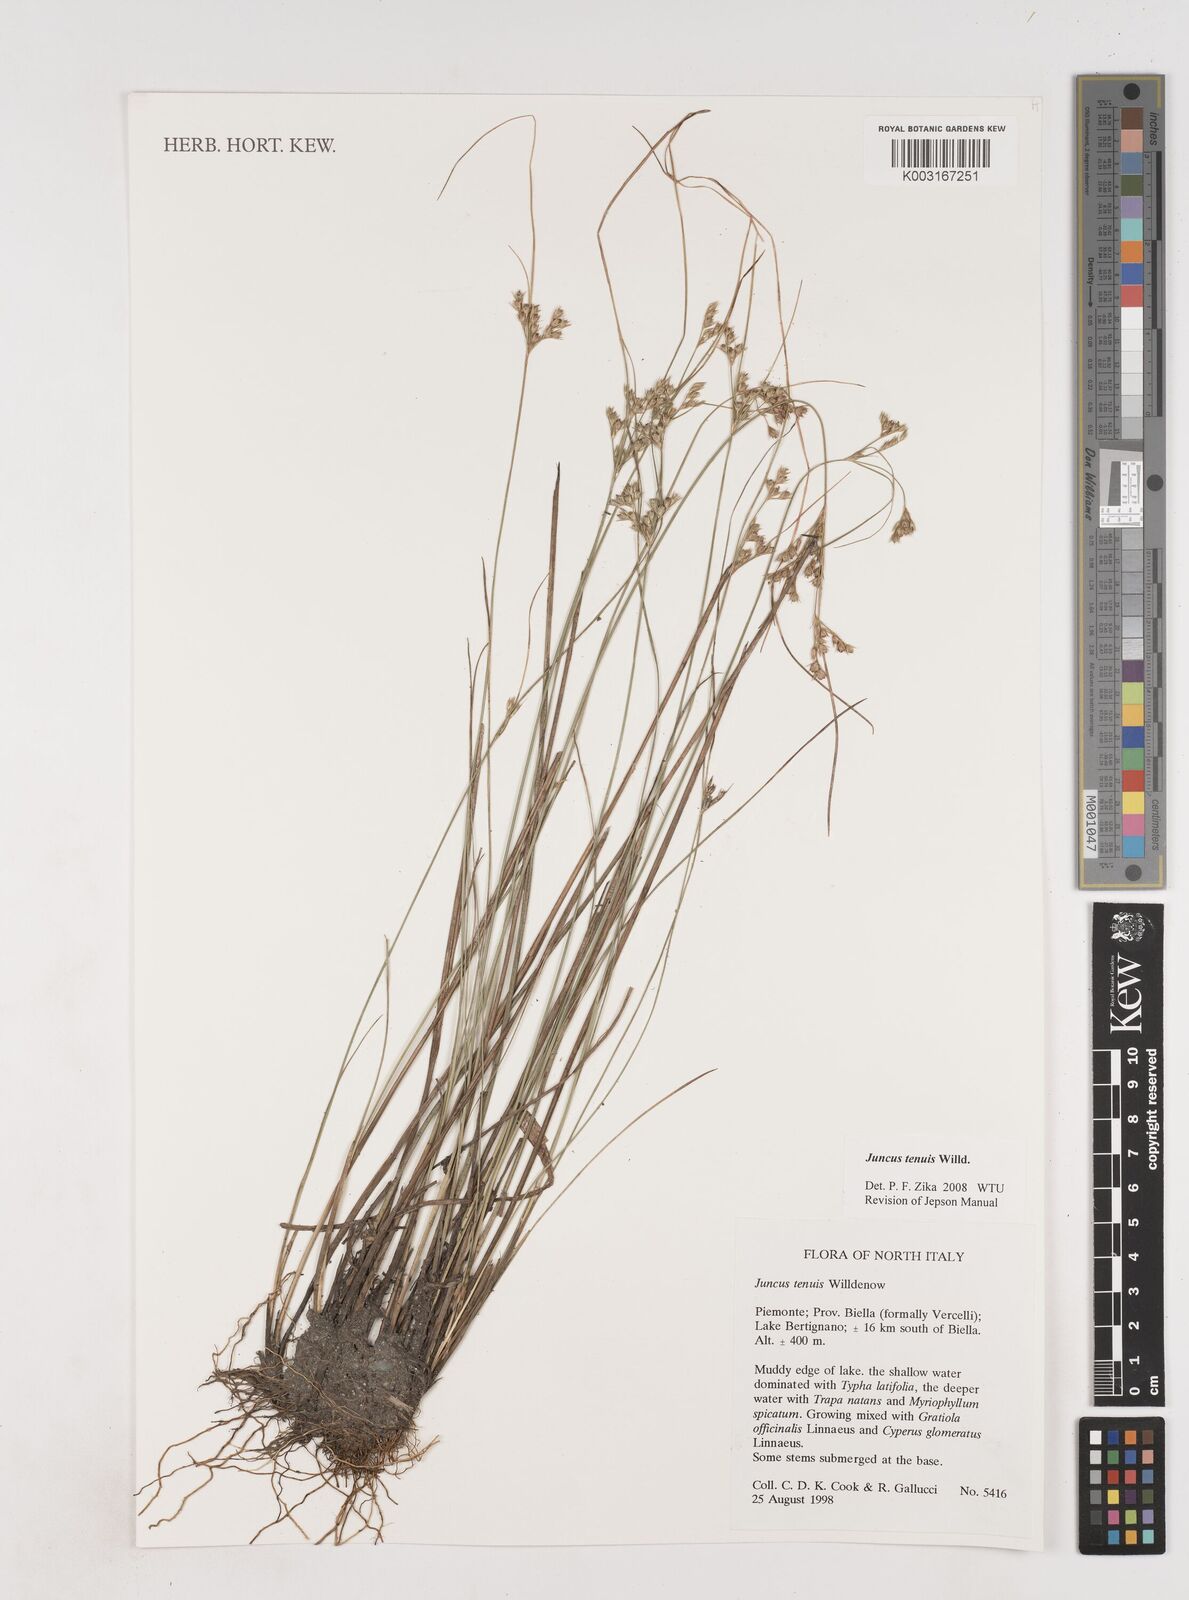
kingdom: Plantae
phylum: Tracheophyta
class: Liliopsida
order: Poales
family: Juncaceae
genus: Juncus
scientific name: Juncus tenuis
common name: Slender rush
